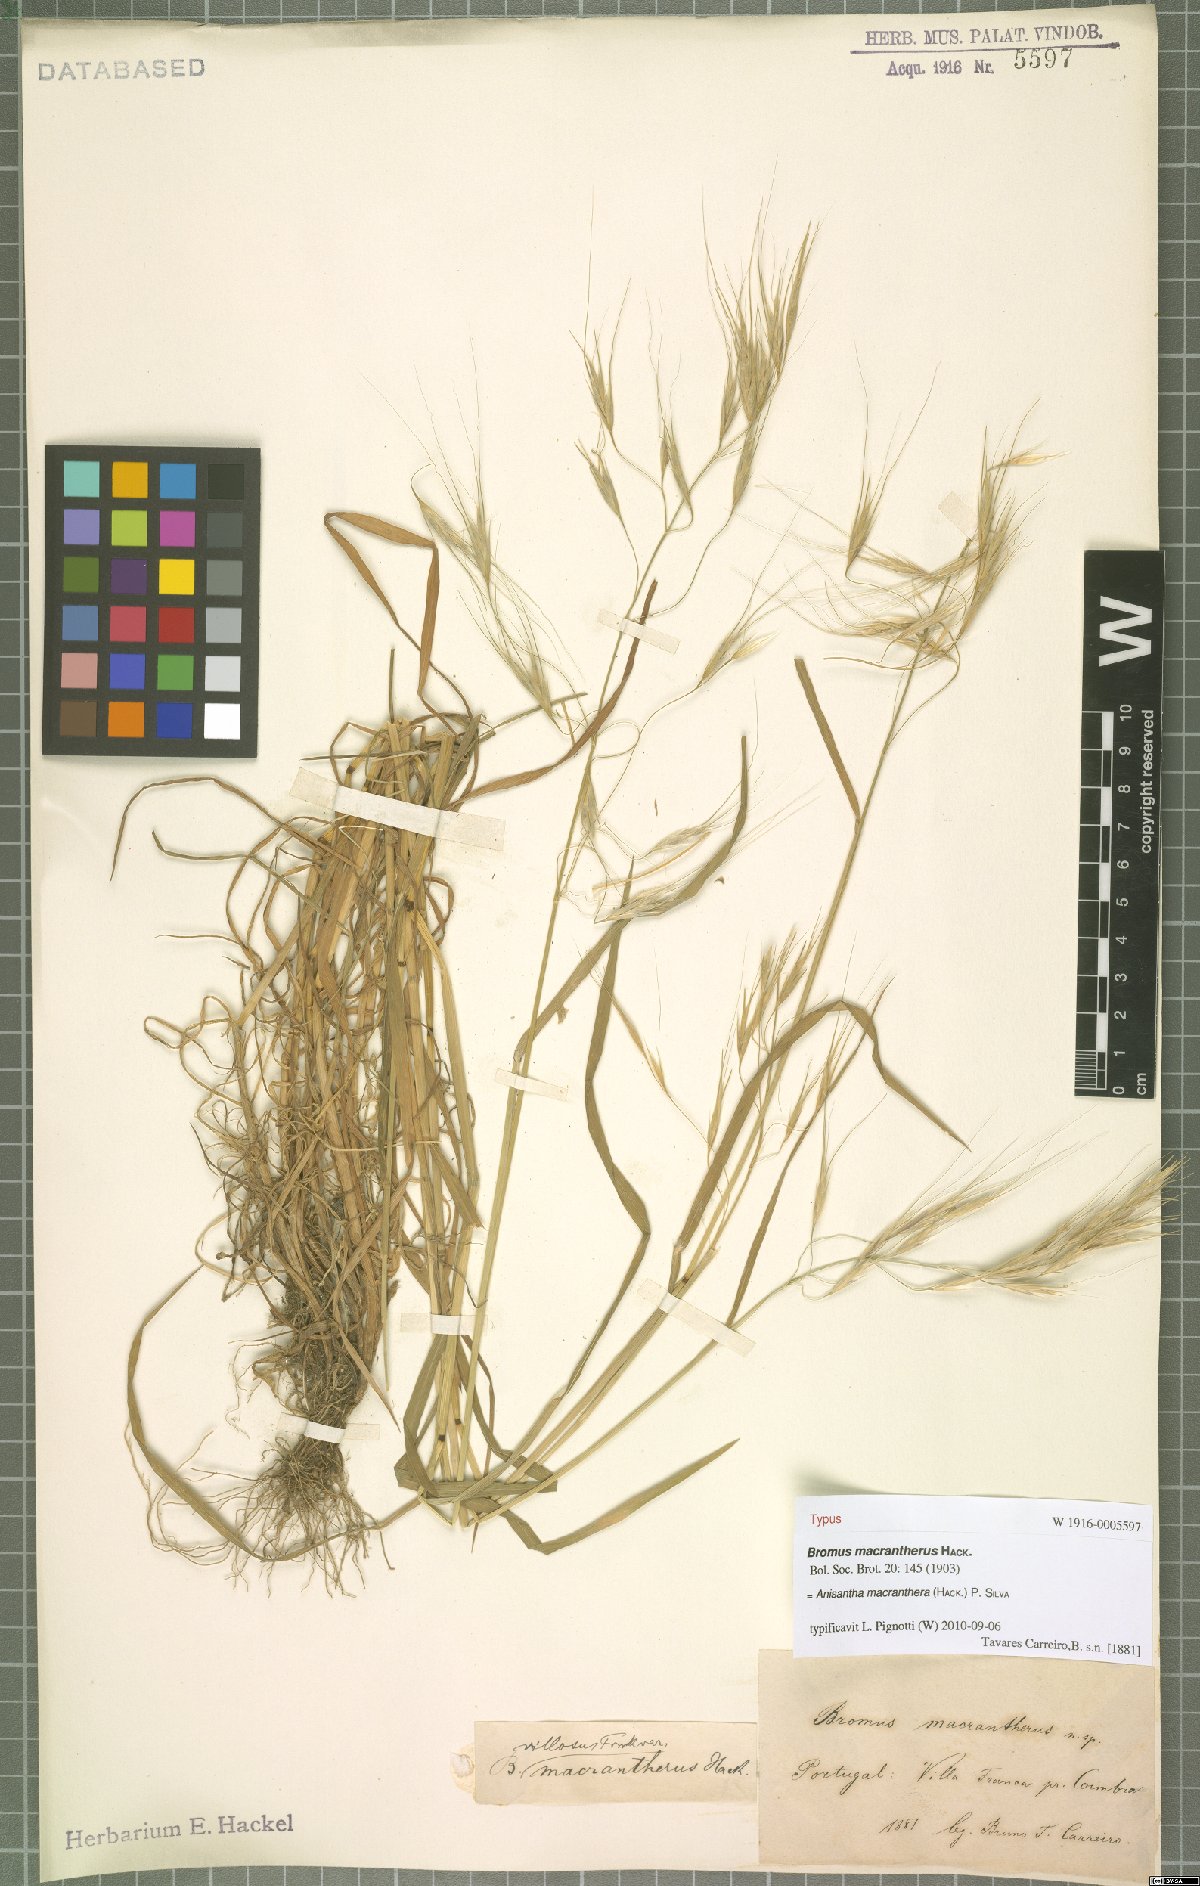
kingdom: Plantae
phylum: Tracheophyta
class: Liliopsida
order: Poales
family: Poaceae
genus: Bromus
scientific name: Bromus diandrus
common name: Ripgut brome
